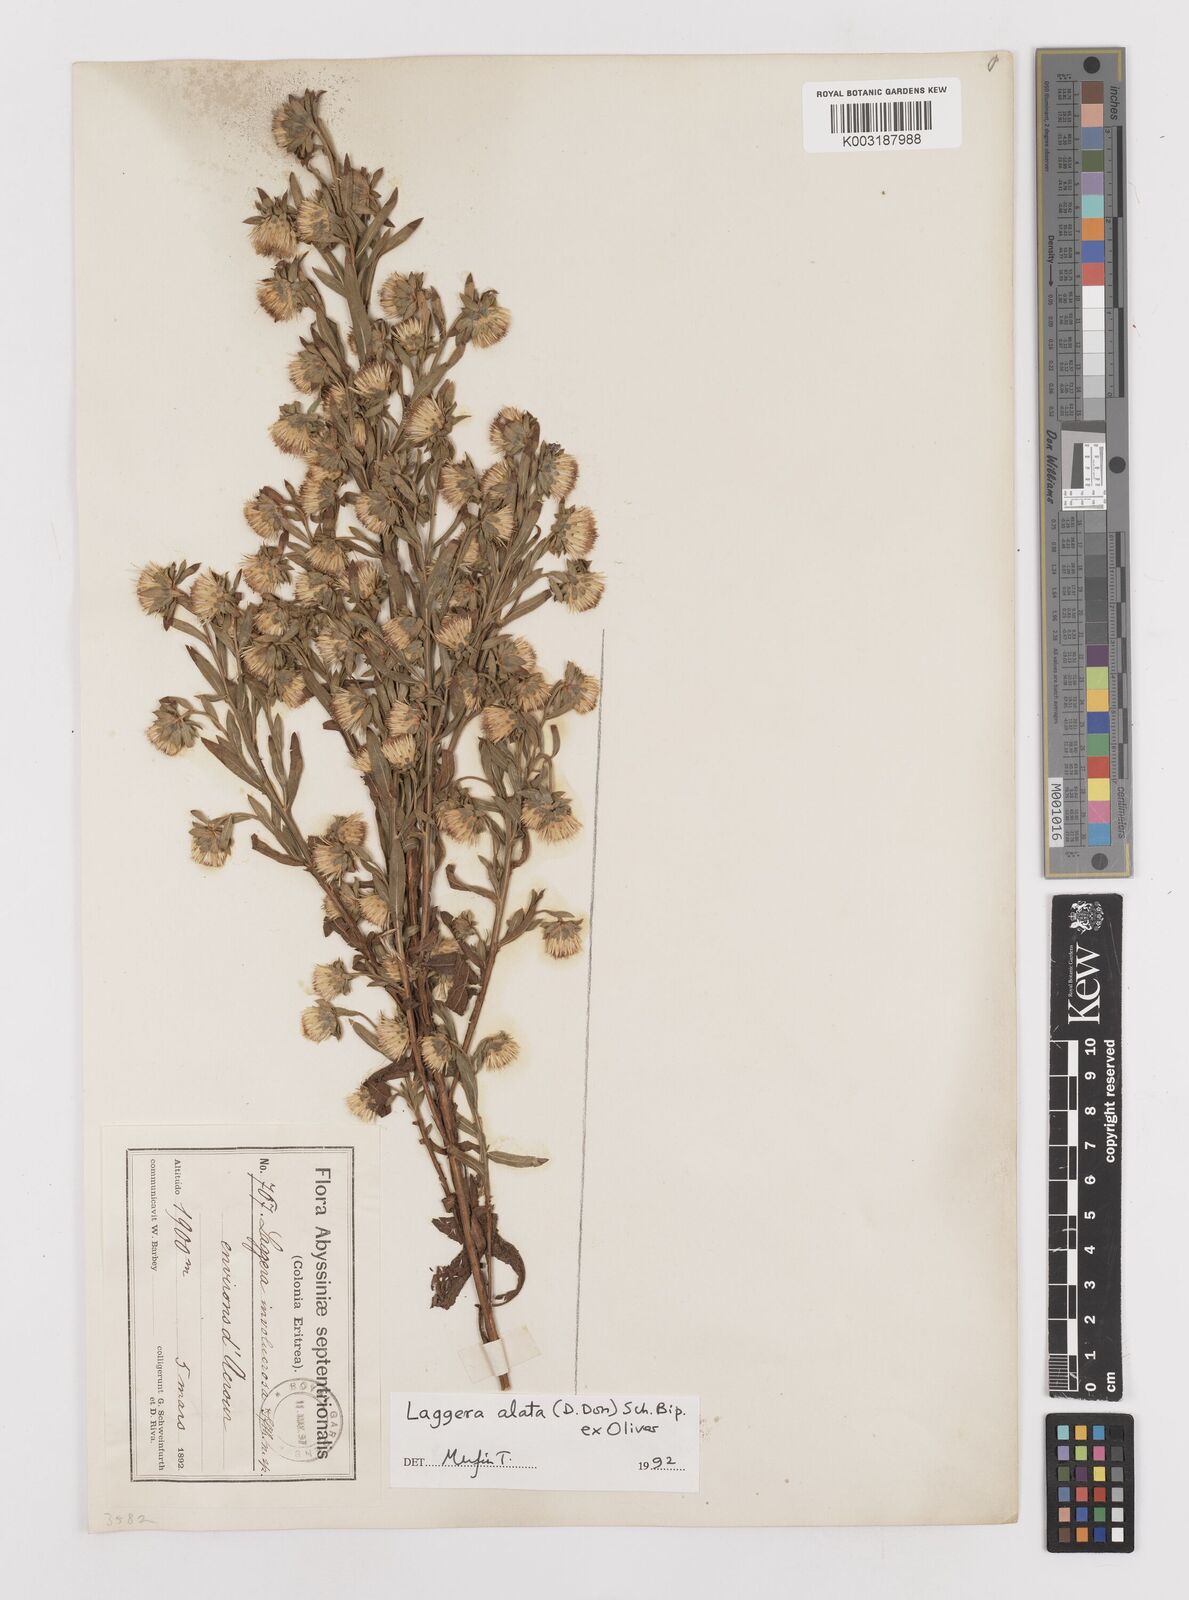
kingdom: Plantae
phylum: Tracheophyta
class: Magnoliopsida
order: Asterales
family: Asteraceae
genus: Laggera
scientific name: Laggera crispata
